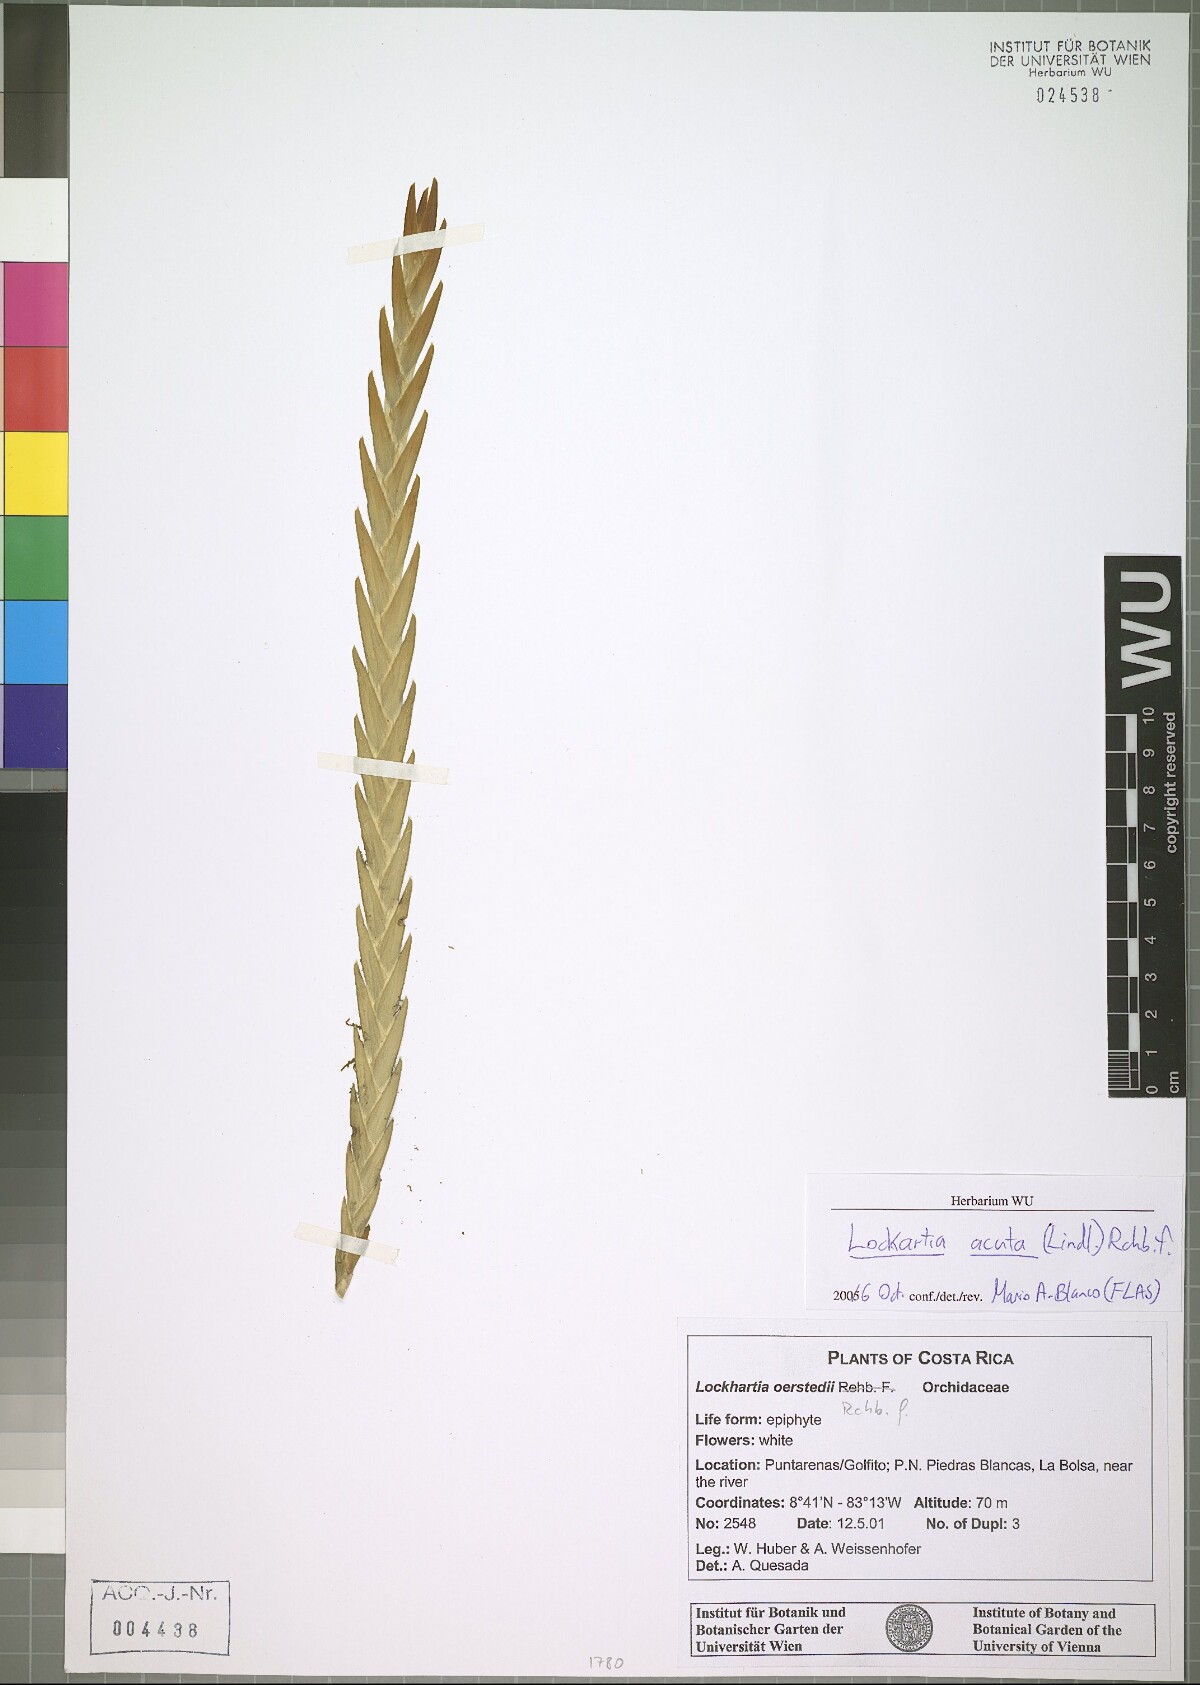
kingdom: Plantae
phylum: Tracheophyta
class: Liliopsida
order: Asparagales
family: Orchidaceae
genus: Lockhartia
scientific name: Lockhartia acuta
